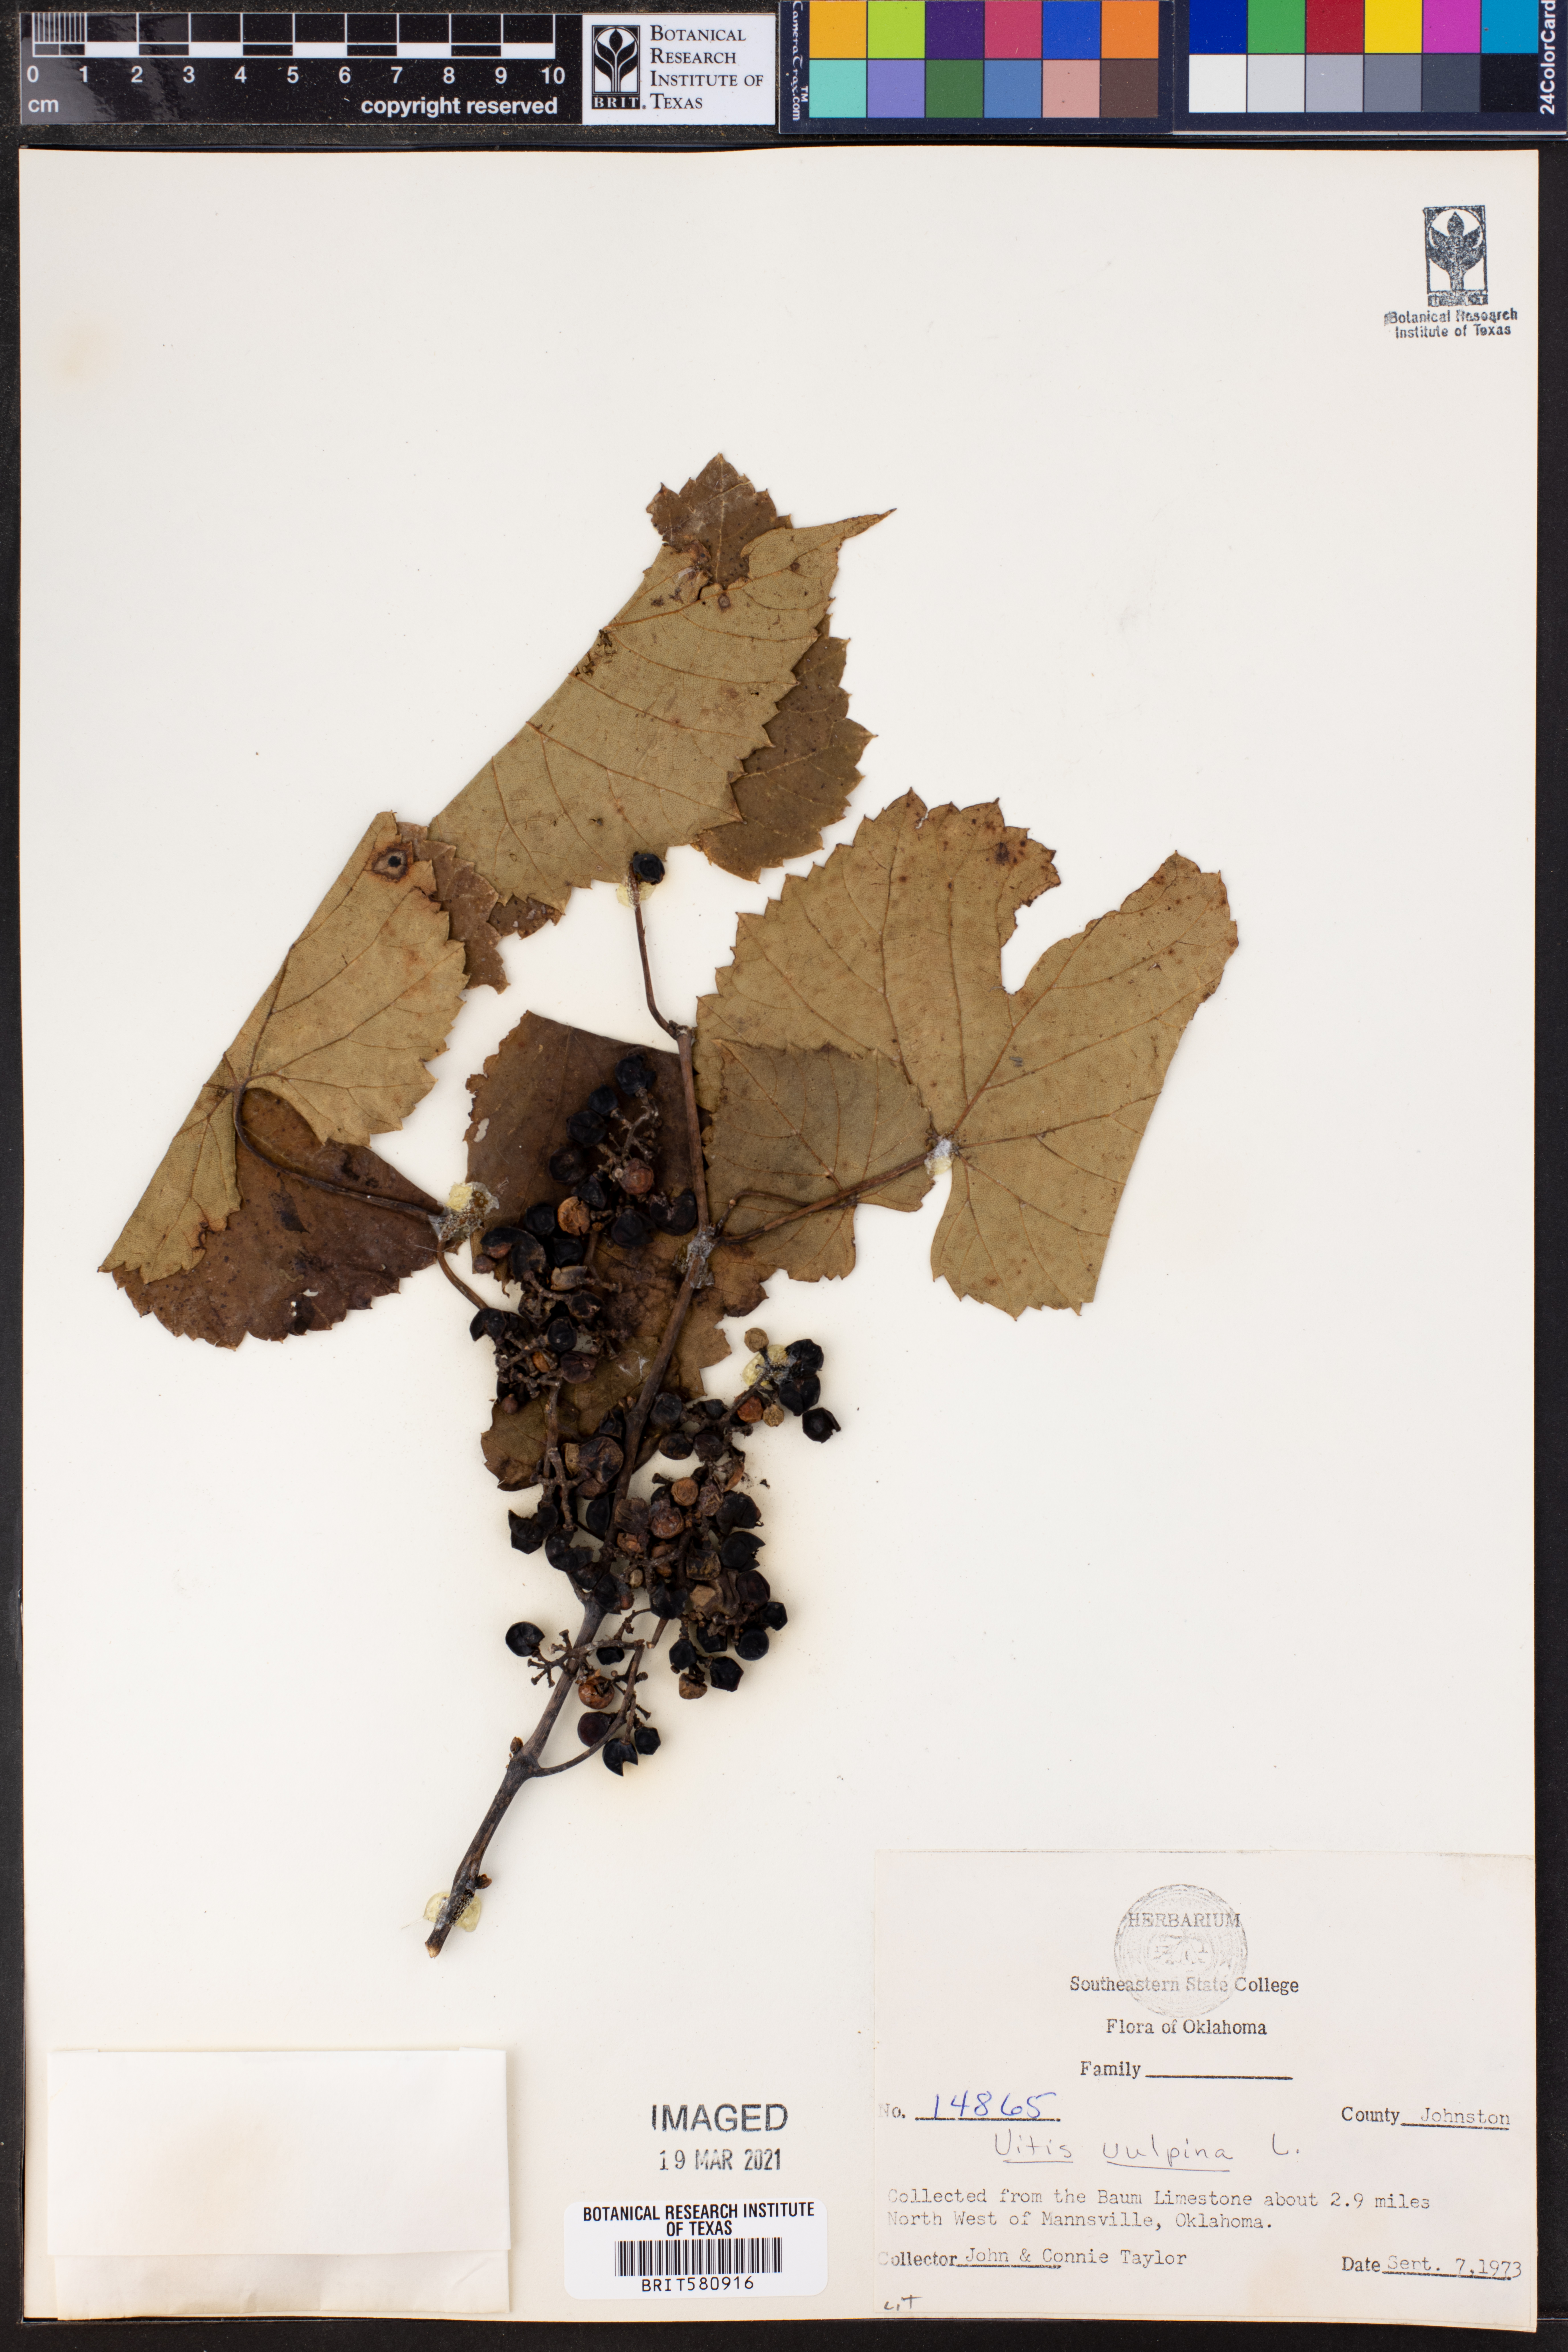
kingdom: Plantae
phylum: Tracheophyta
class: Magnoliopsida
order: Vitales
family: Vitaceae
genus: Vitis
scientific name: Vitis vulpina
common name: Frost grape
